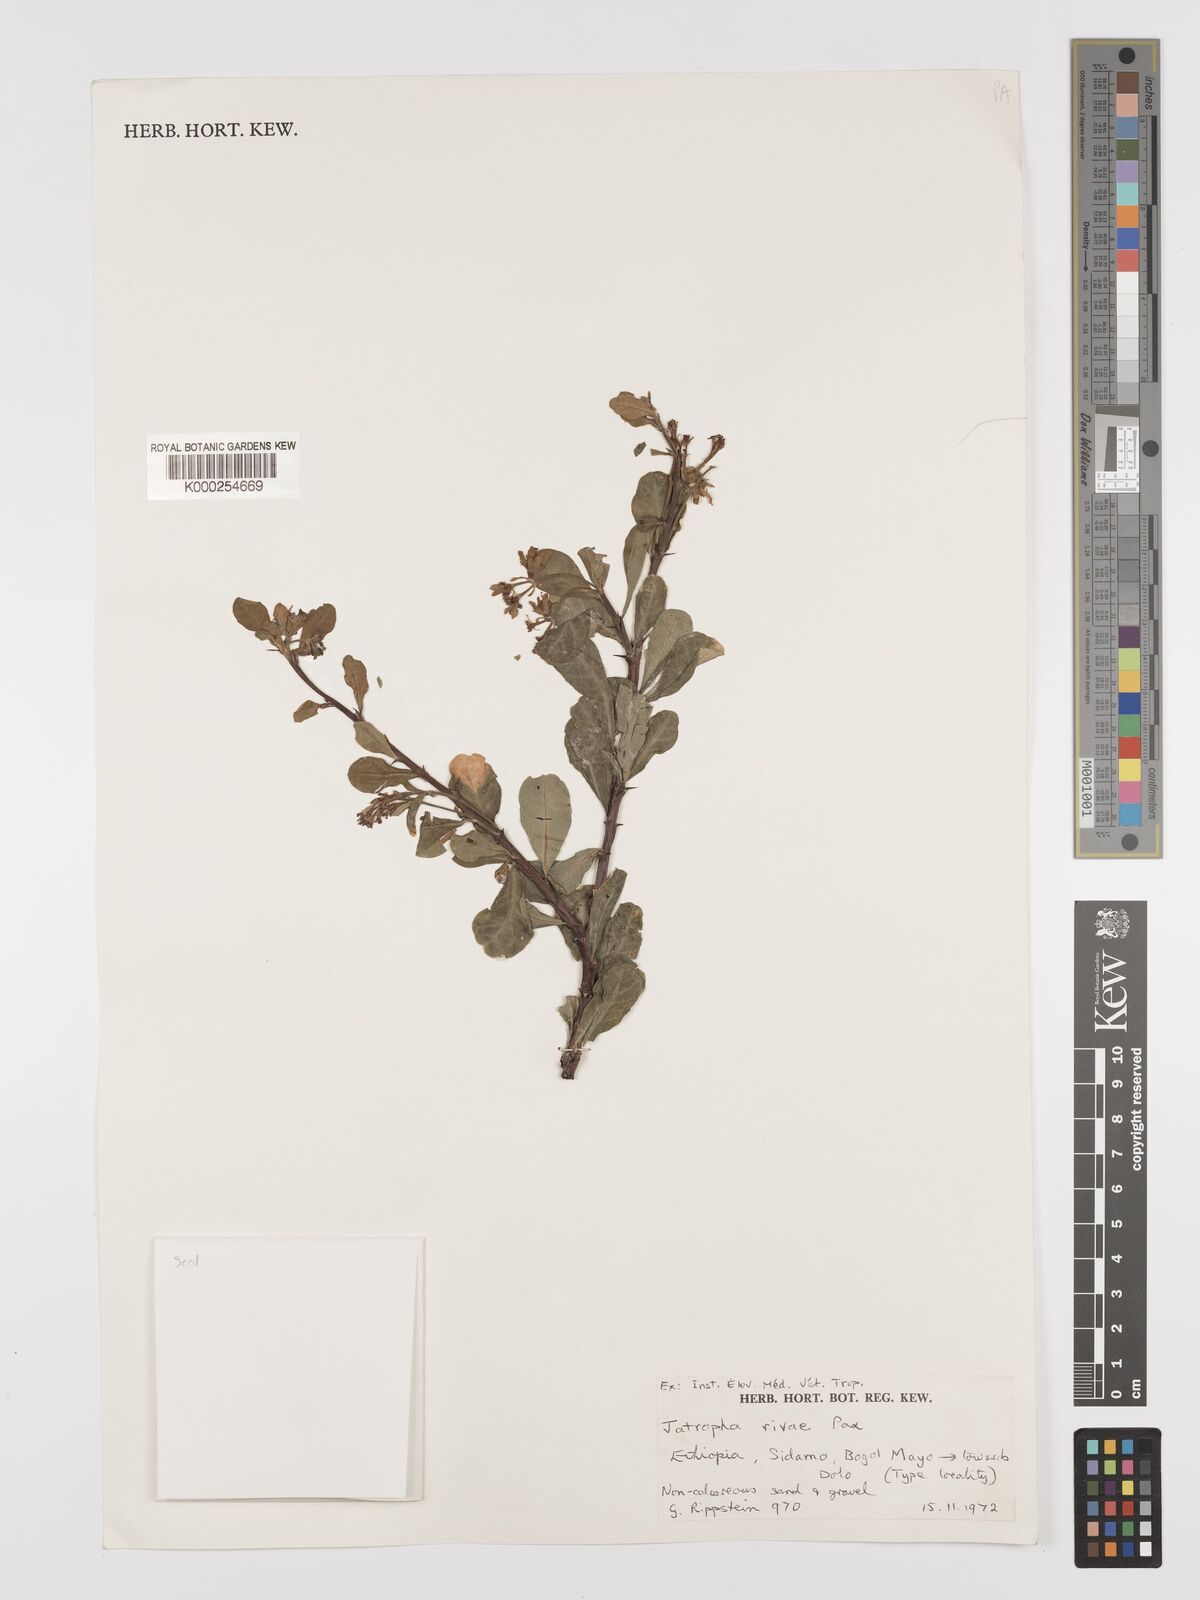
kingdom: Plantae
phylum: Tracheophyta
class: Magnoliopsida
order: Malpighiales
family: Euphorbiaceae
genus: Jatropha
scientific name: Jatropha rivae
